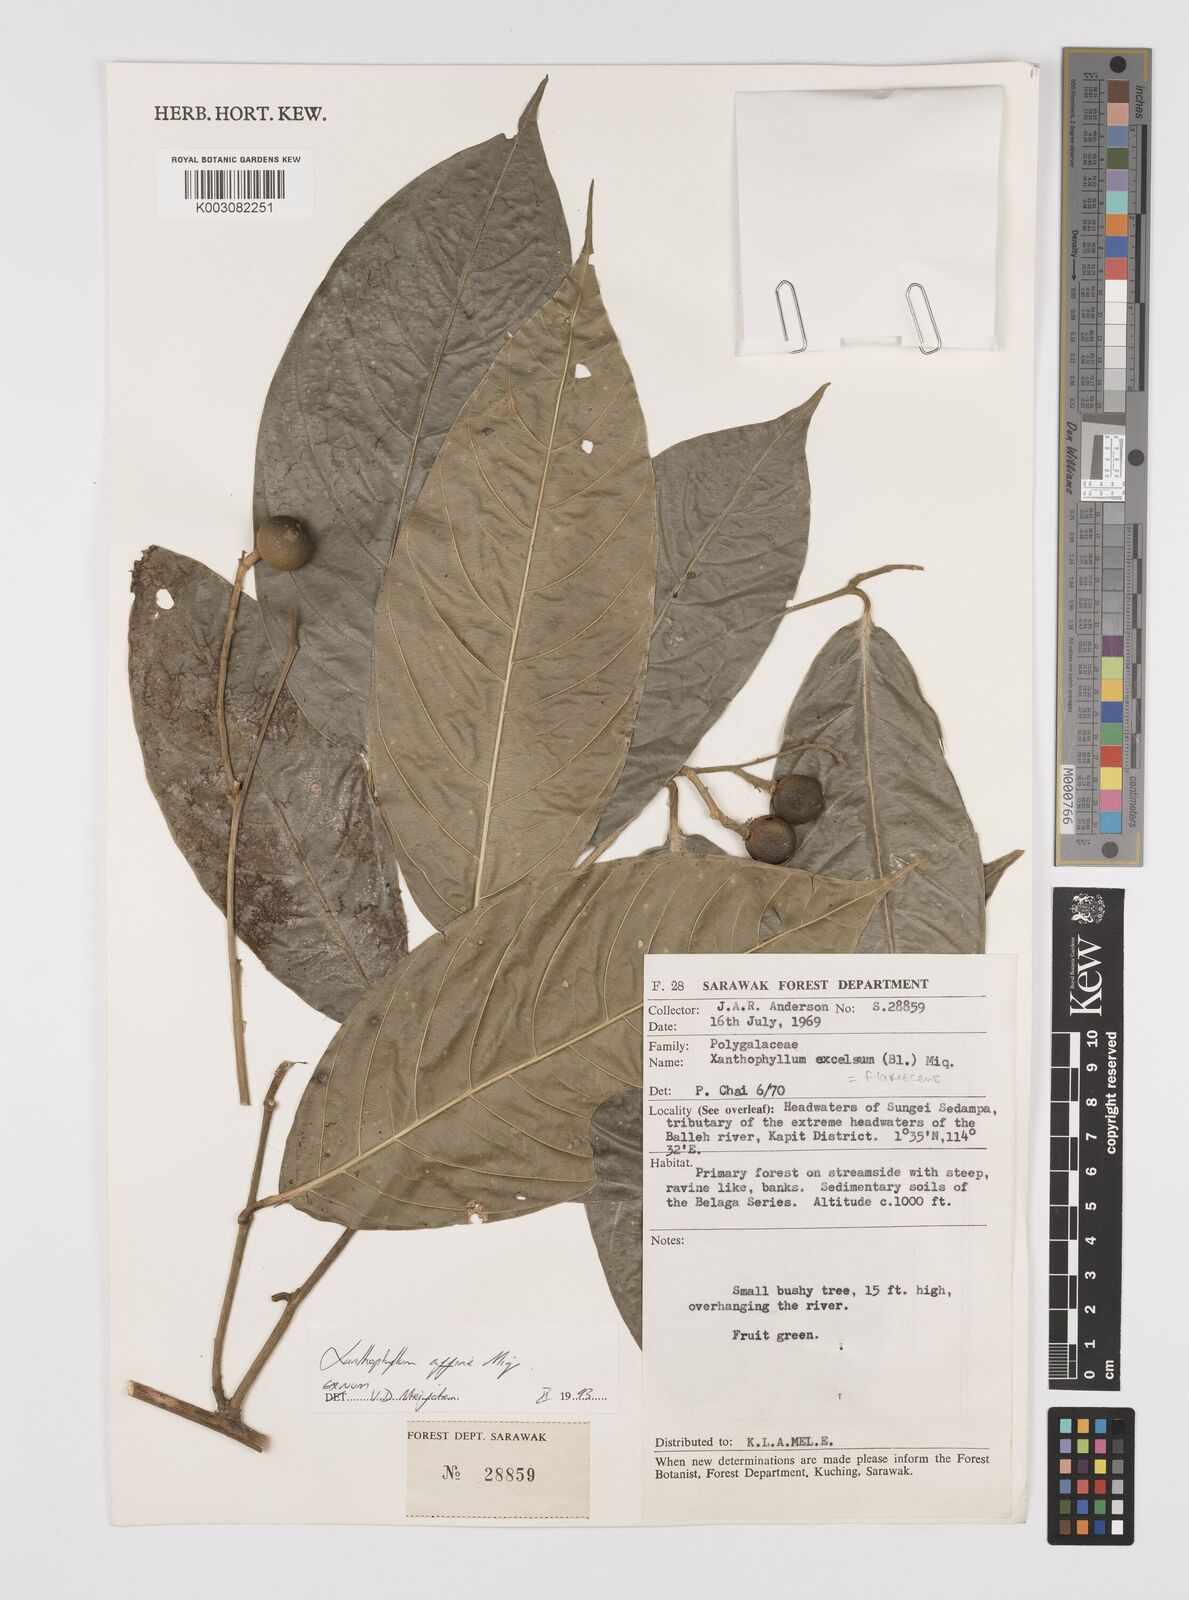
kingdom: Plantae
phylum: Tracheophyta
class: Magnoliopsida
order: Fabales
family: Polygalaceae
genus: Xanthophyllum
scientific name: Xanthophyllum flavescens
